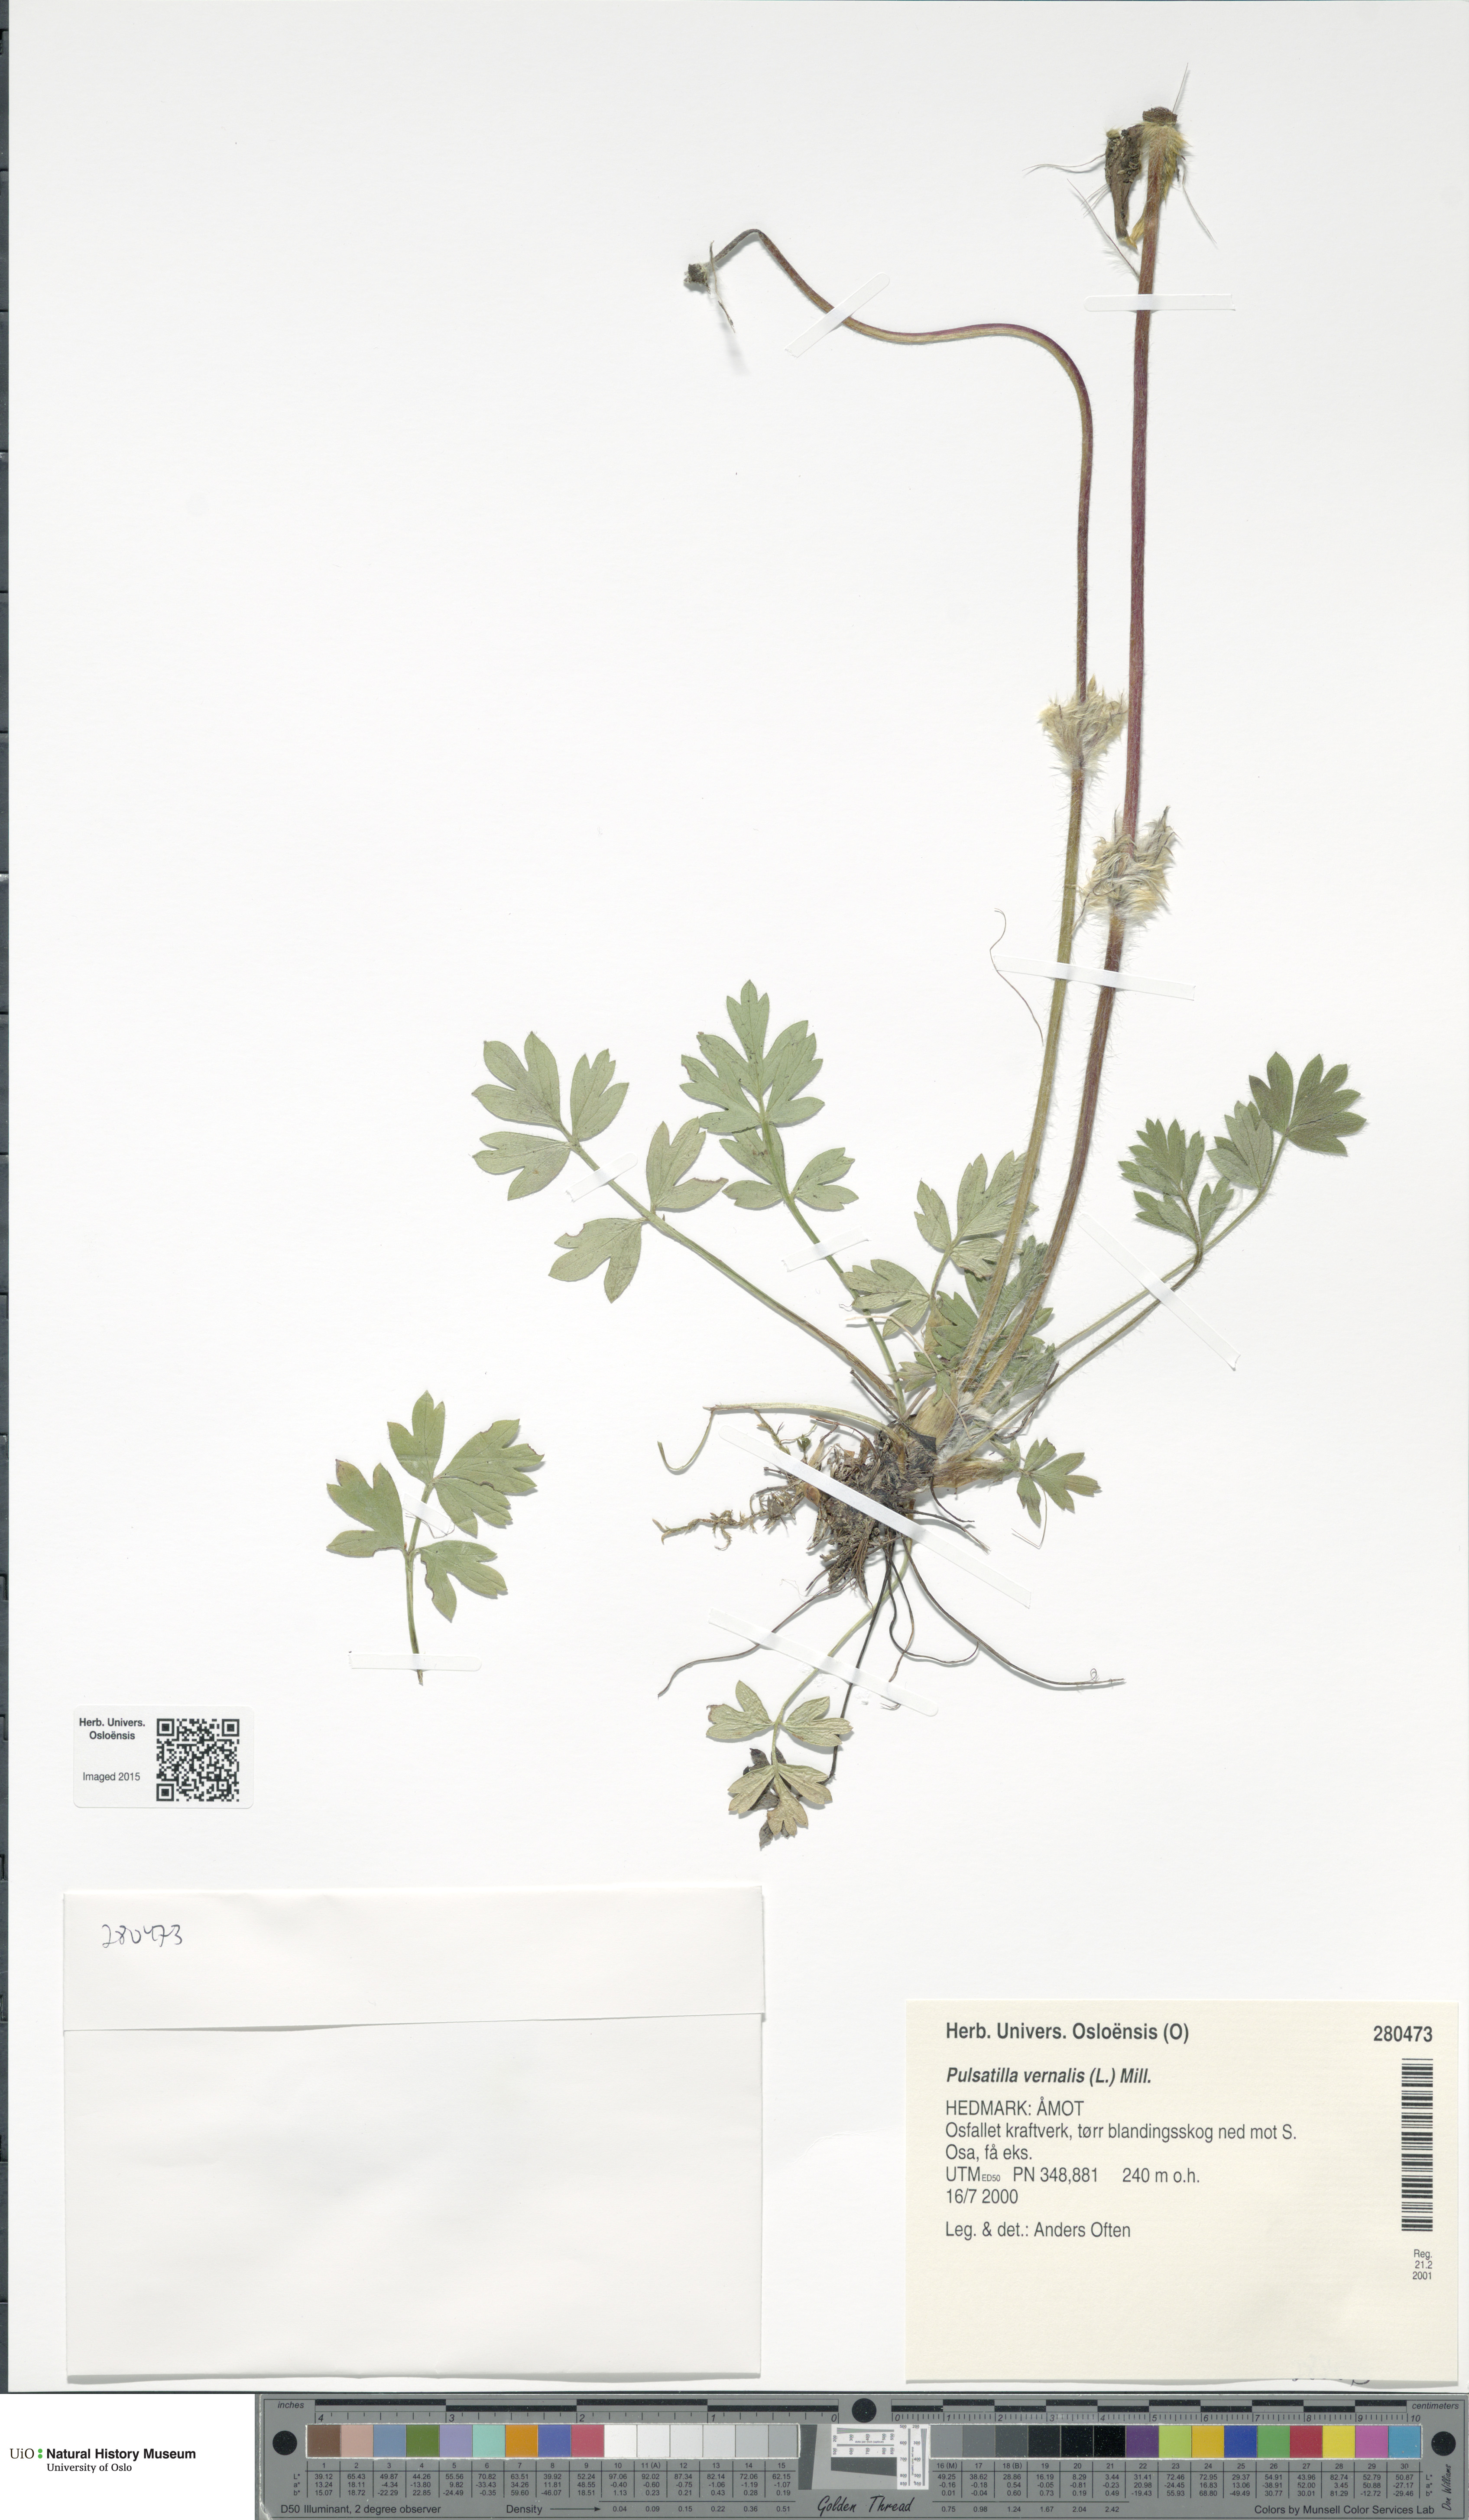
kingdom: Plantae
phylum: Tracheophyta
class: Magnoliopsida
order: Ranunculales
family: Ranunculaceae
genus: Pulsatilla
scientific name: Pulsatilla vernalis
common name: Spring pasque flower
